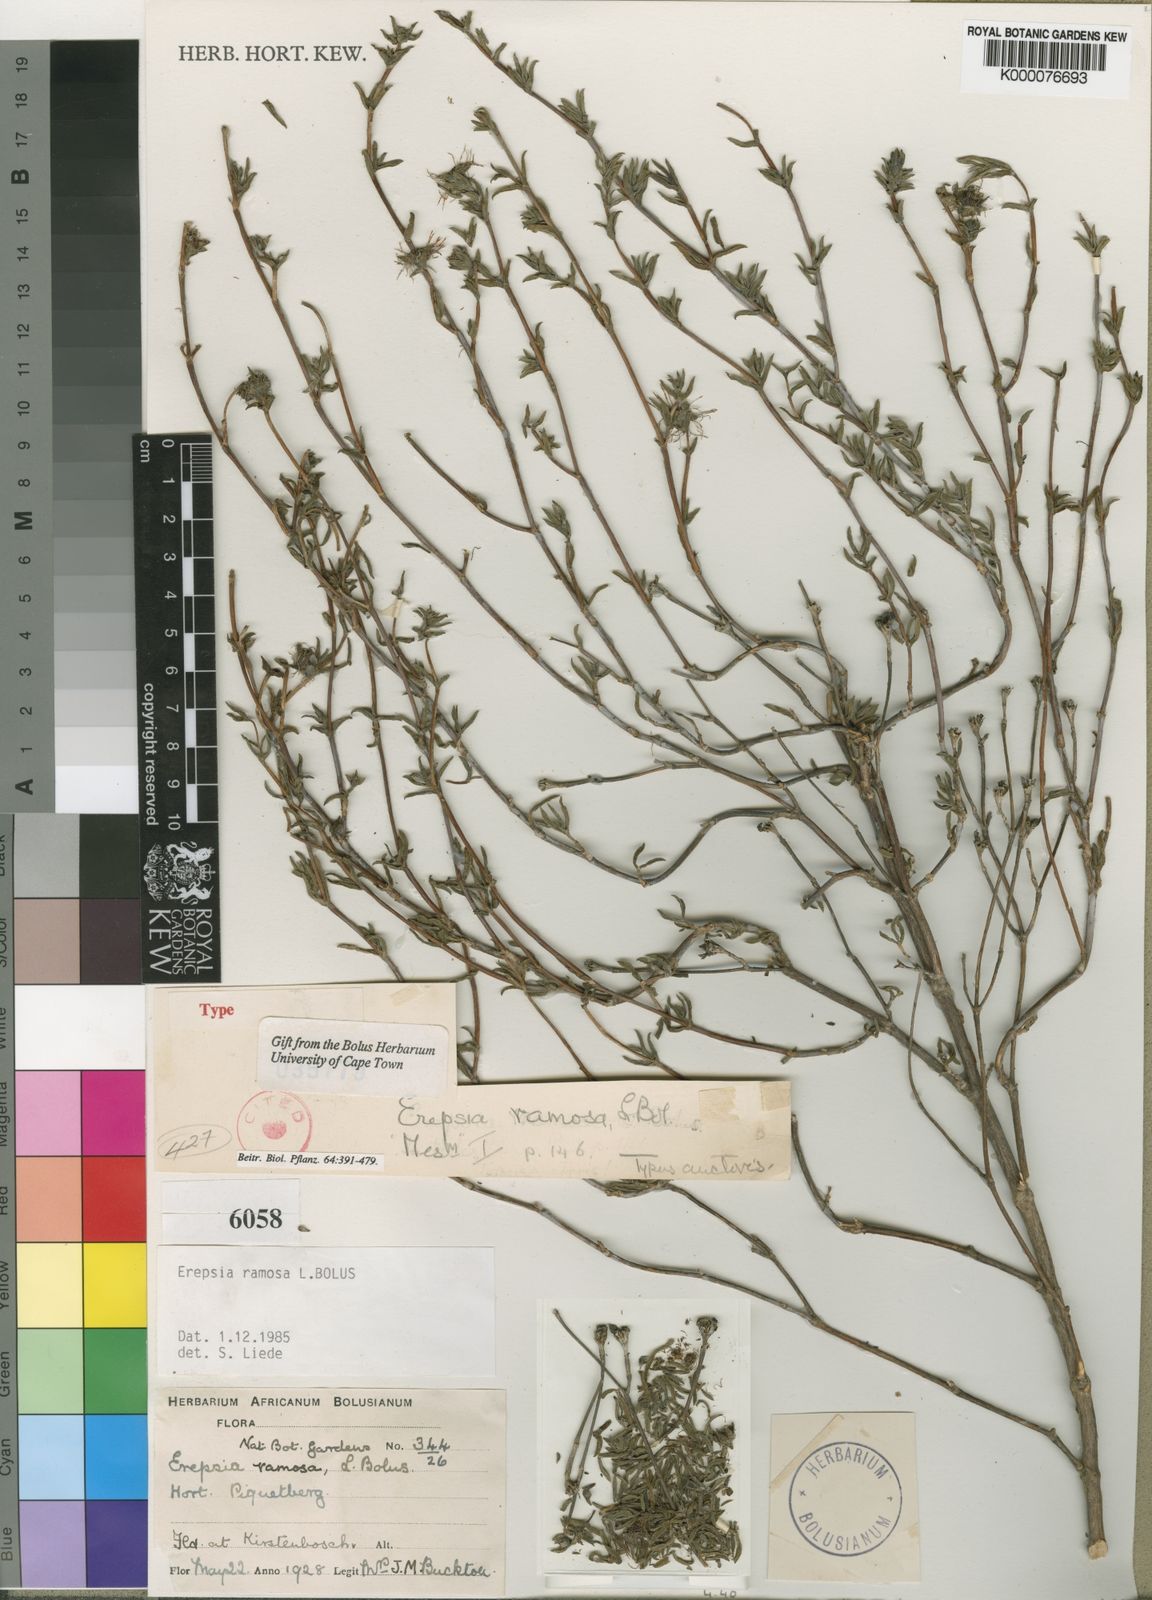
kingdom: Plantae
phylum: Tracheophyta
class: Magnoliopsida
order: Caryophyllales
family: Aizoaceae
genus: Erepsia
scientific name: Erepsia ramosa
